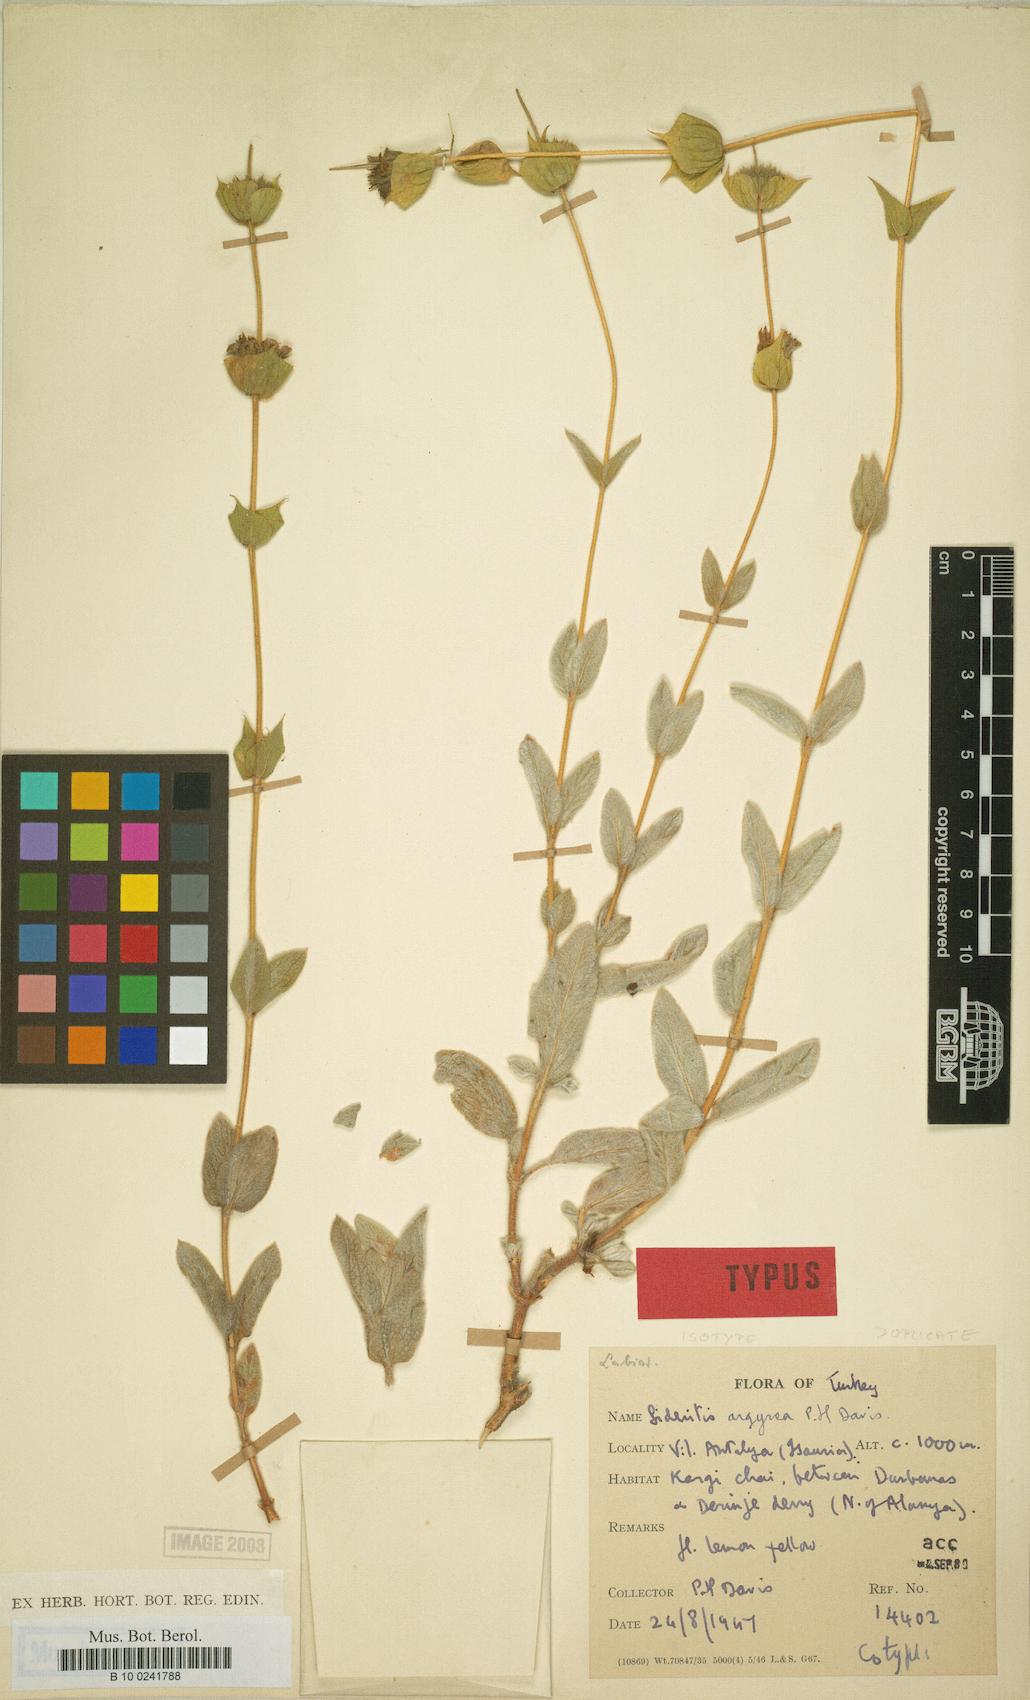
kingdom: Plantae
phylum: Tracheophyta
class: Magnoliopsida
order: Lamiales
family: Lamiaceae
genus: Sideritis
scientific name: Sideritis argyrea
